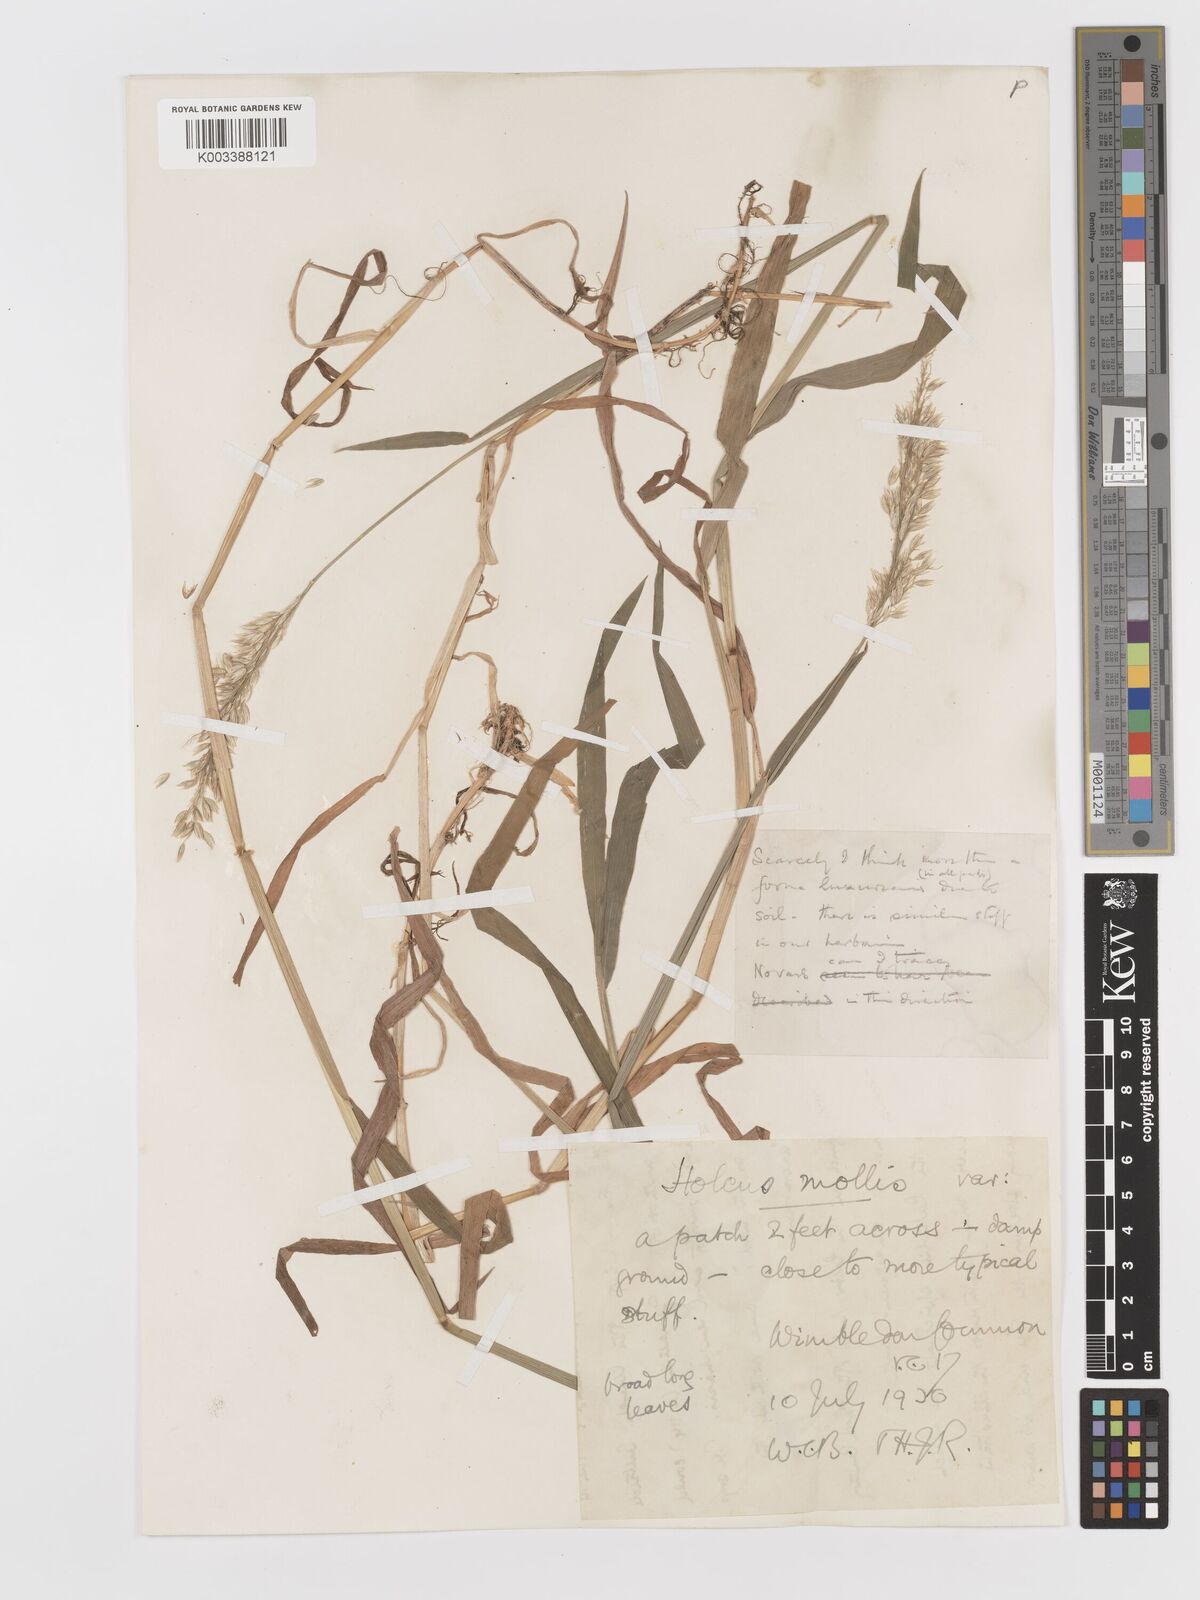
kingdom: Plantae
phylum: Tracheophyta
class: Liliopsida
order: Poales
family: Poaceae
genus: Holcus
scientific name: Holcus mollis
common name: Creeping velvetgrass
